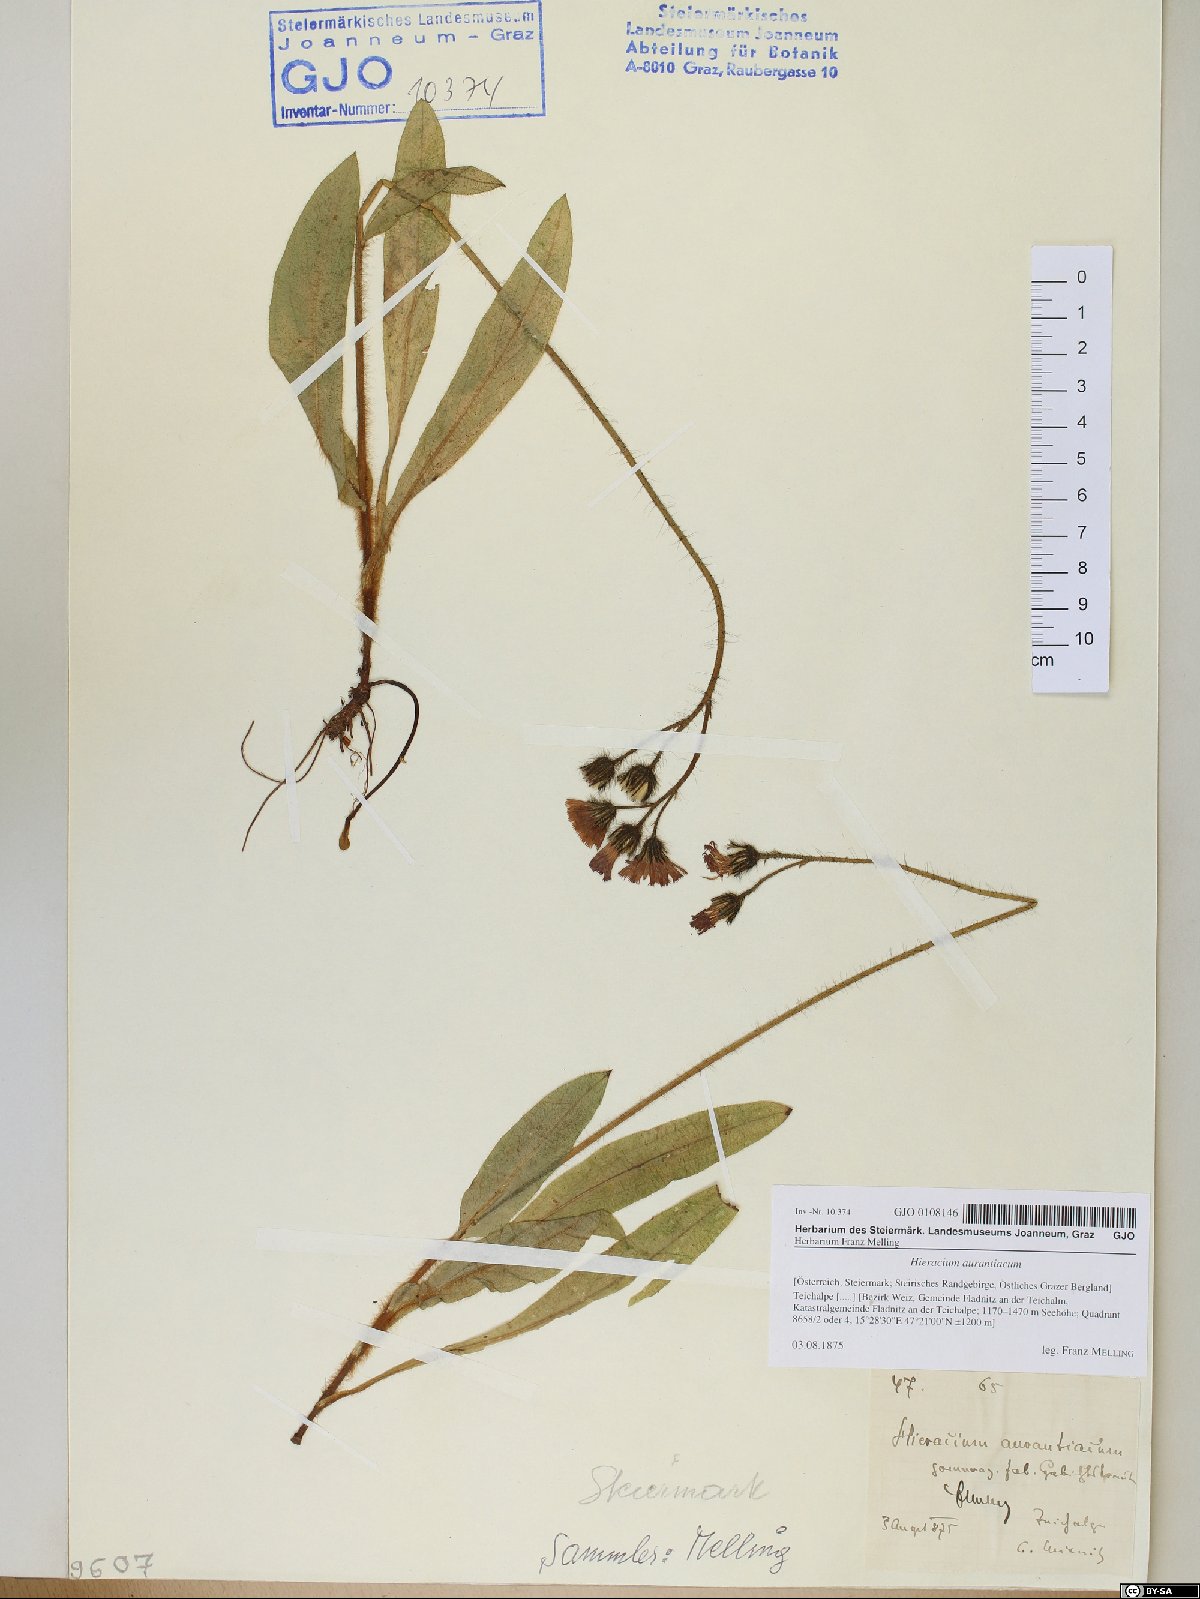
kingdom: Plantae
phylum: Tracheophyta
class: Magnoliopsida
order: Asterales
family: Asteraceae
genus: Pilosella
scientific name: Pilosella aurantiaca
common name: Fox-and-cubs
